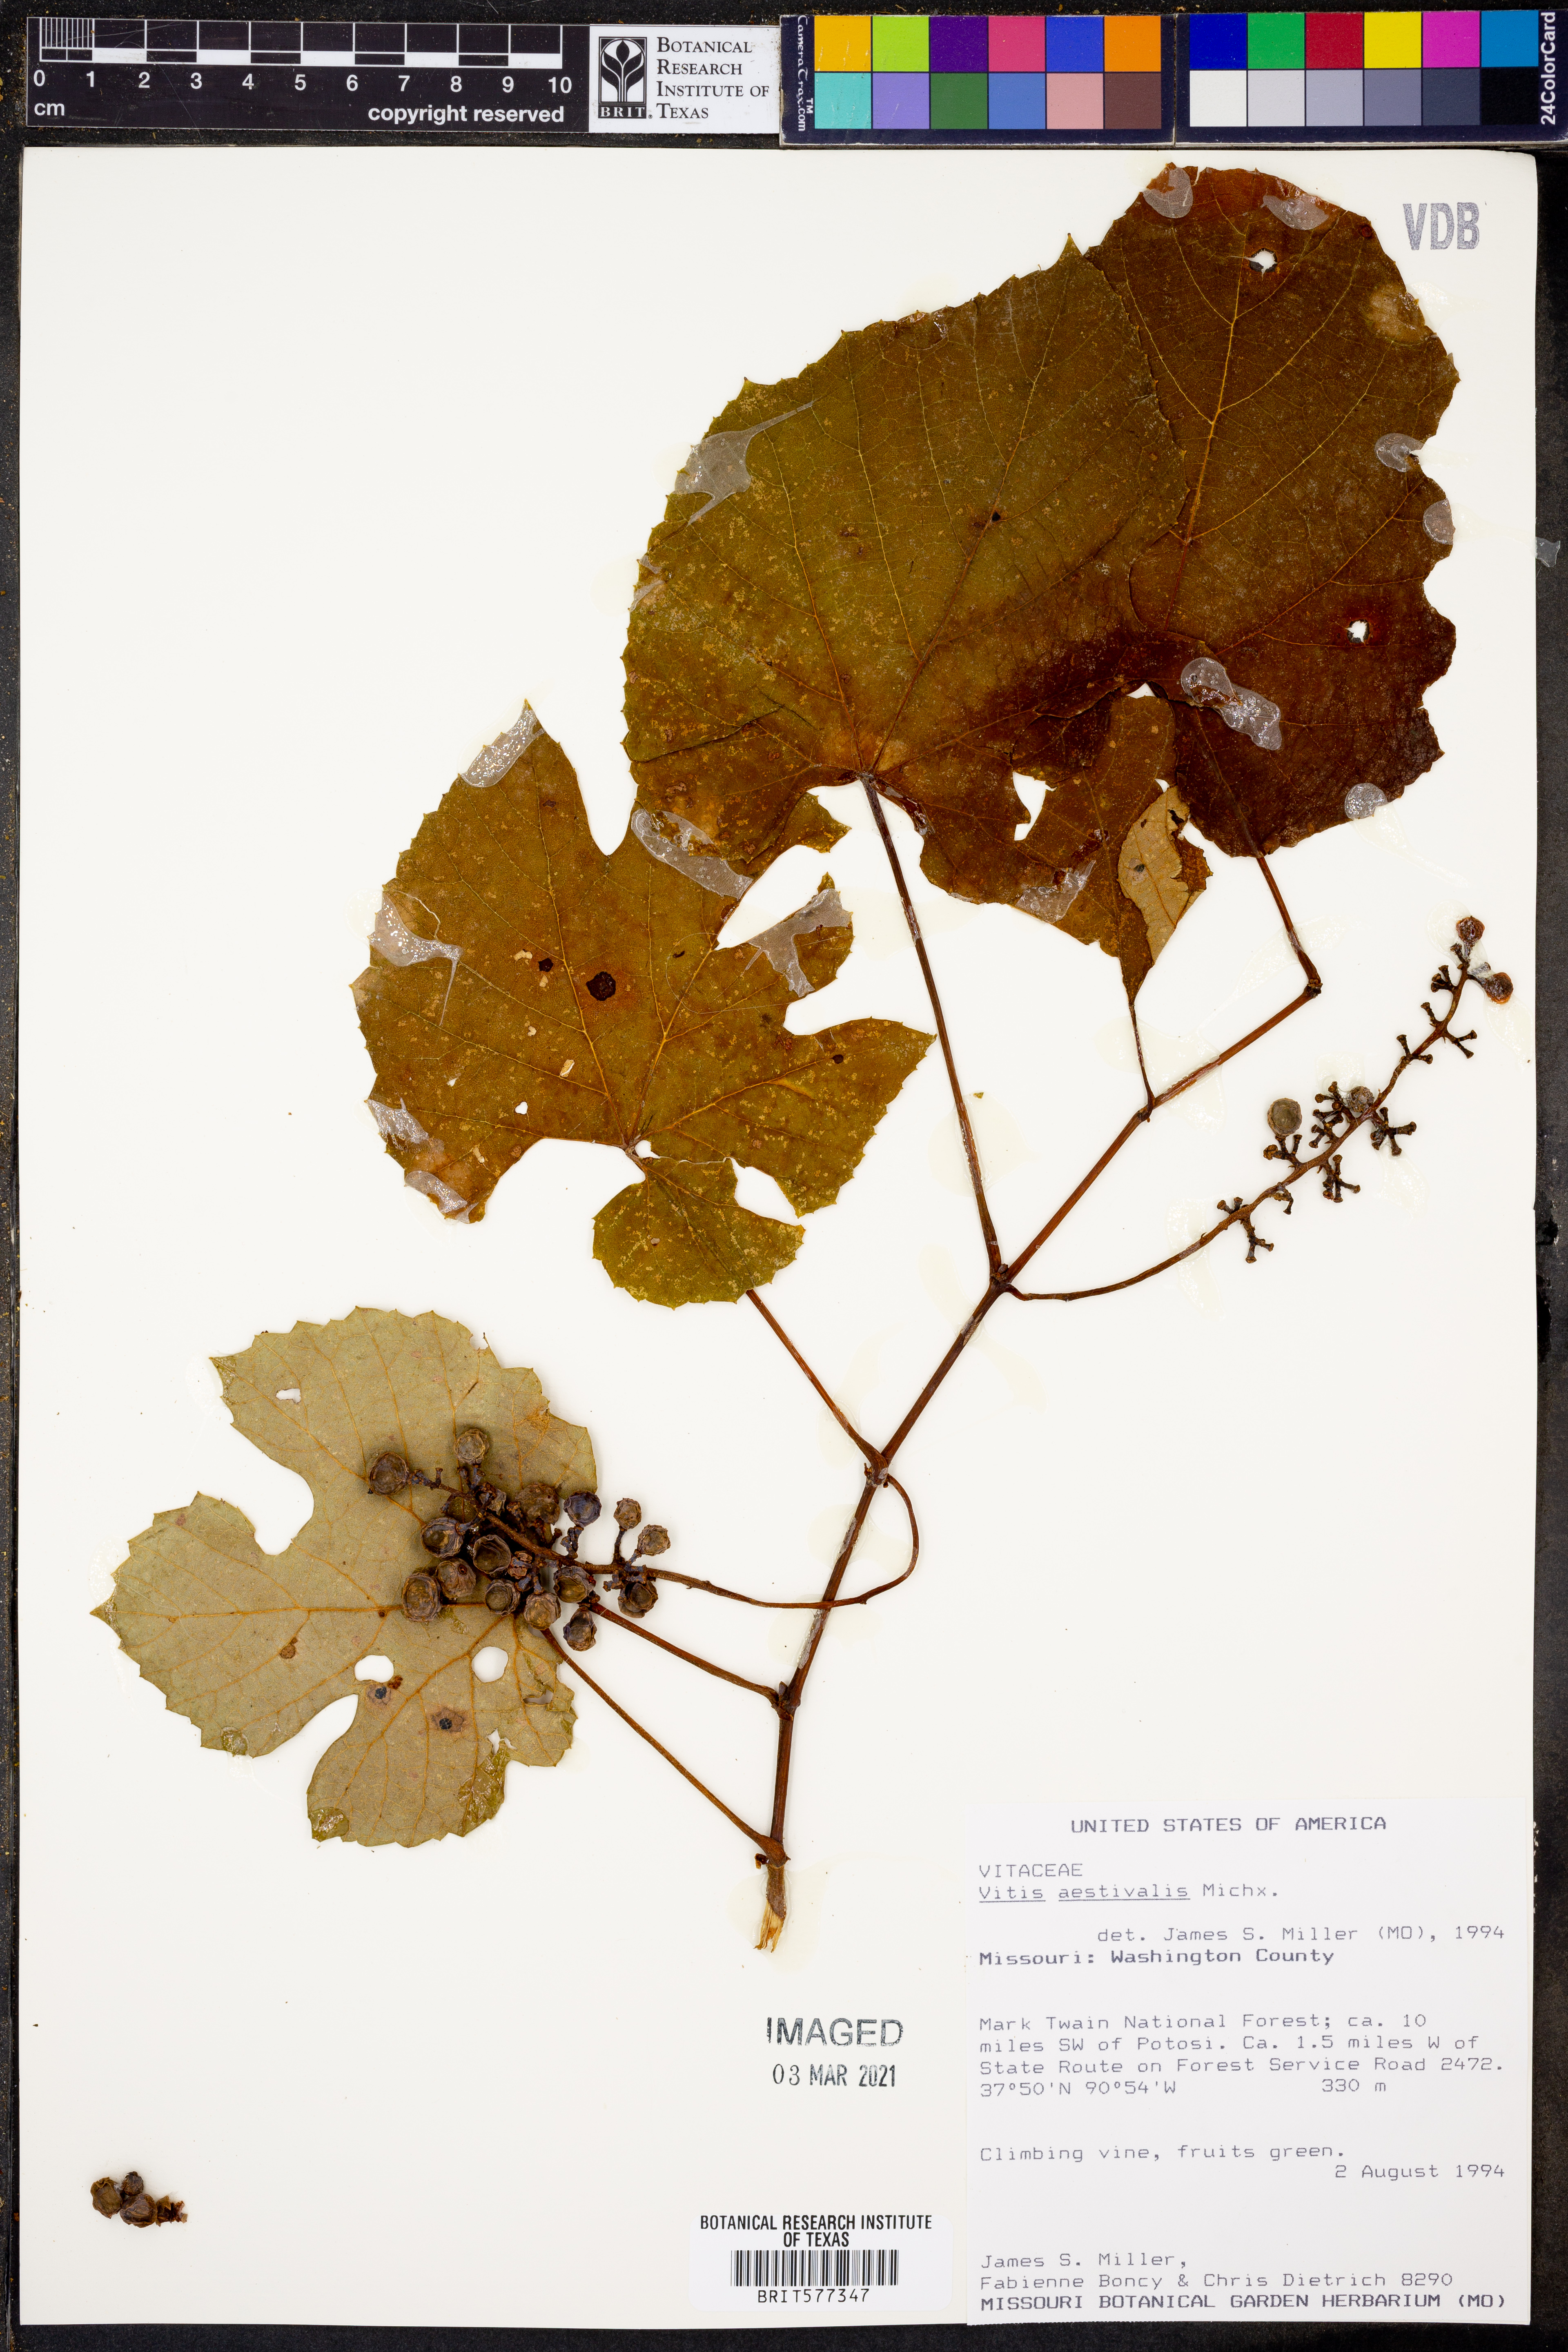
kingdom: Plantae
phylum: Tracheophyta
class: Magnoliopsida
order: Vitales
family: Vitaceae
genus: Vitis
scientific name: Vitis aestivalis
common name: Pigeon grape
